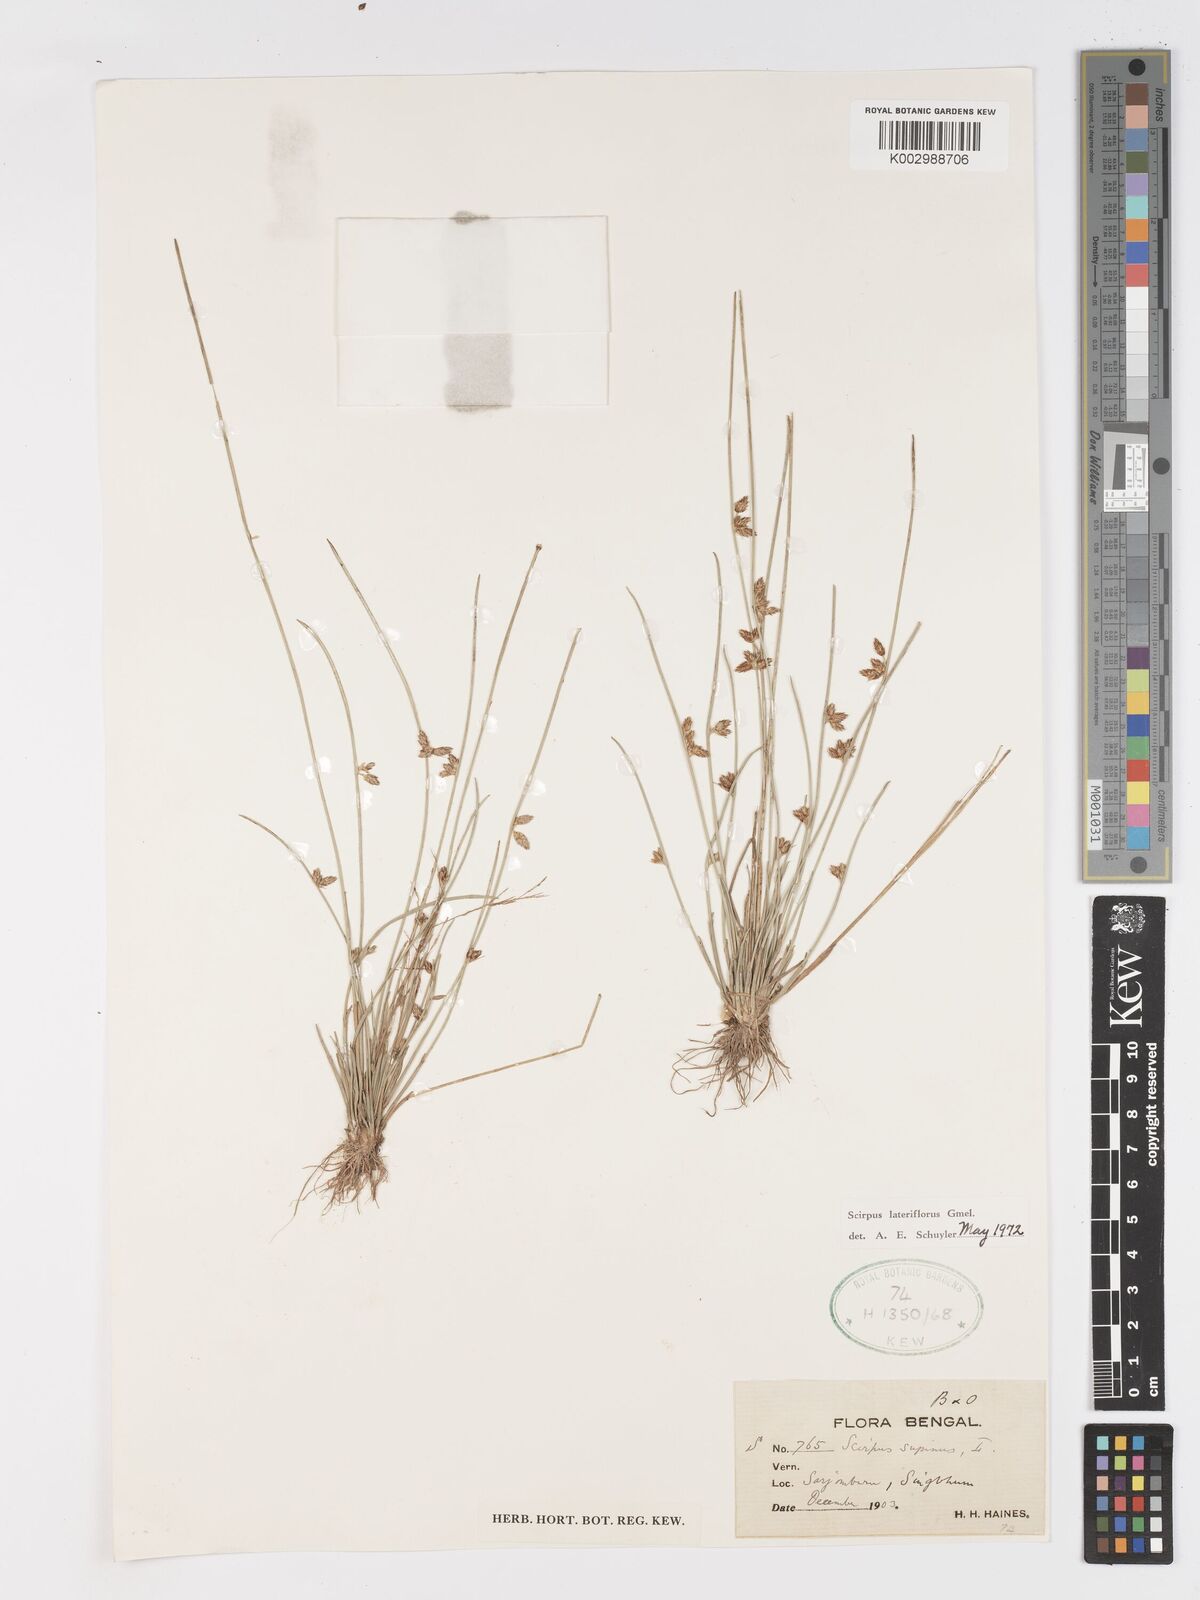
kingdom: Plantae
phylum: Tracheophyta
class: Liliopsida
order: Poales
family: Cyperaceae
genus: Schoenoplectiella
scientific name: Schoenoplectiella lateriflora
